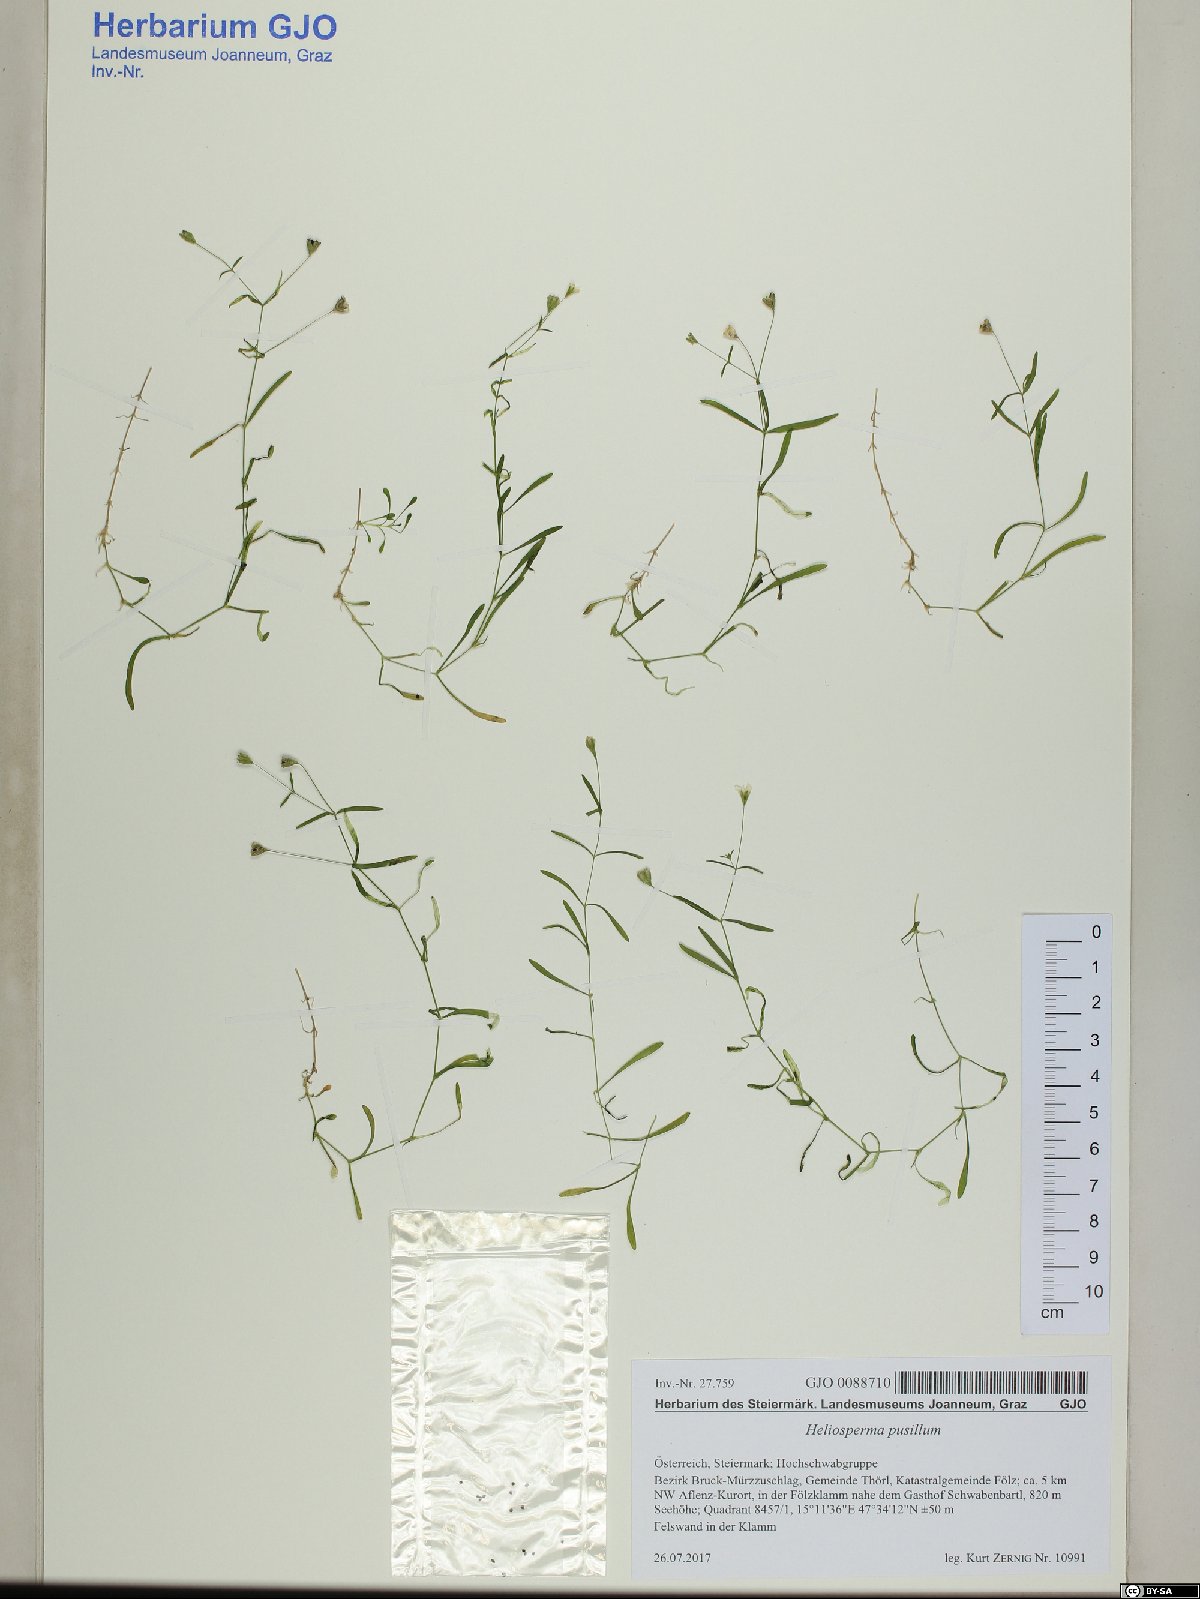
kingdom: Plantae
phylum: Tracheophyta
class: Magnoliopsida
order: Caryophyllales
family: Caryophyllaceae
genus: Heliosperma
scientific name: Heliosperma pusillum
